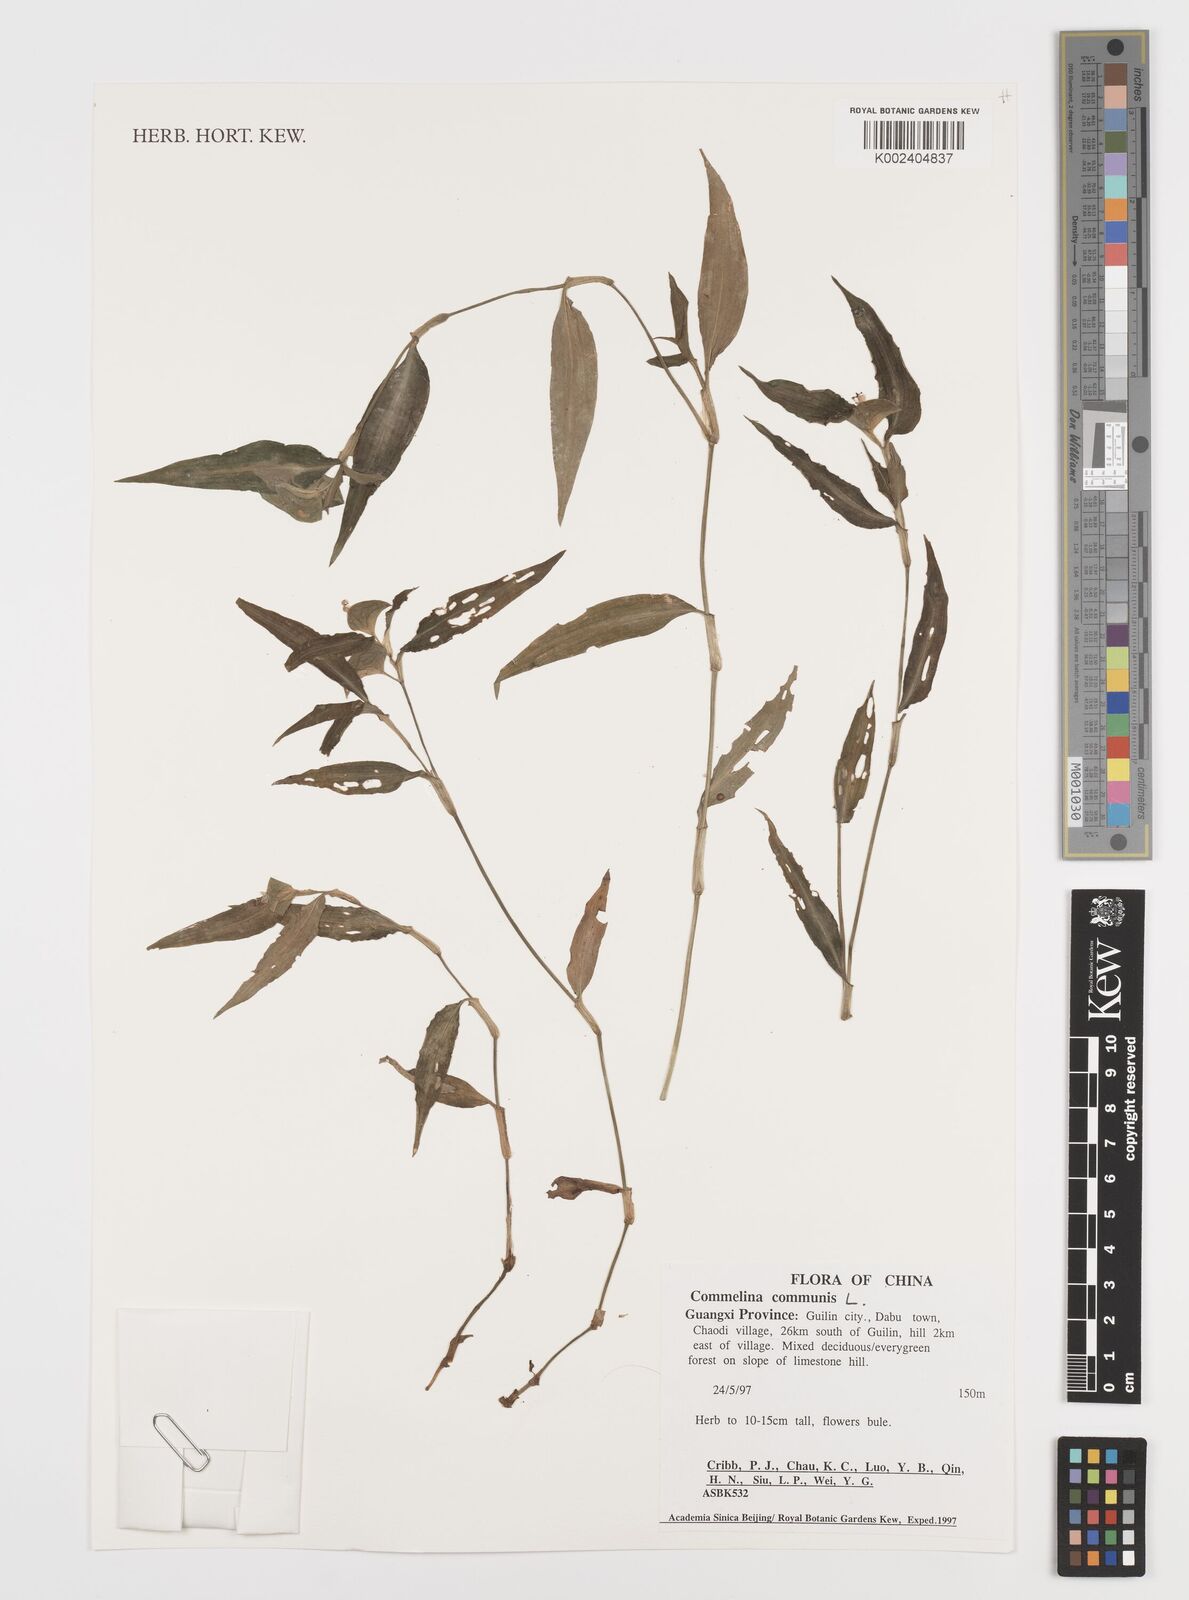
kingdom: Plantae
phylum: Tracheophyta
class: Liliopsida
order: Commelinales
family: Commelinaceae
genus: Commelina
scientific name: Commelina communis
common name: Asiatic dayflower
